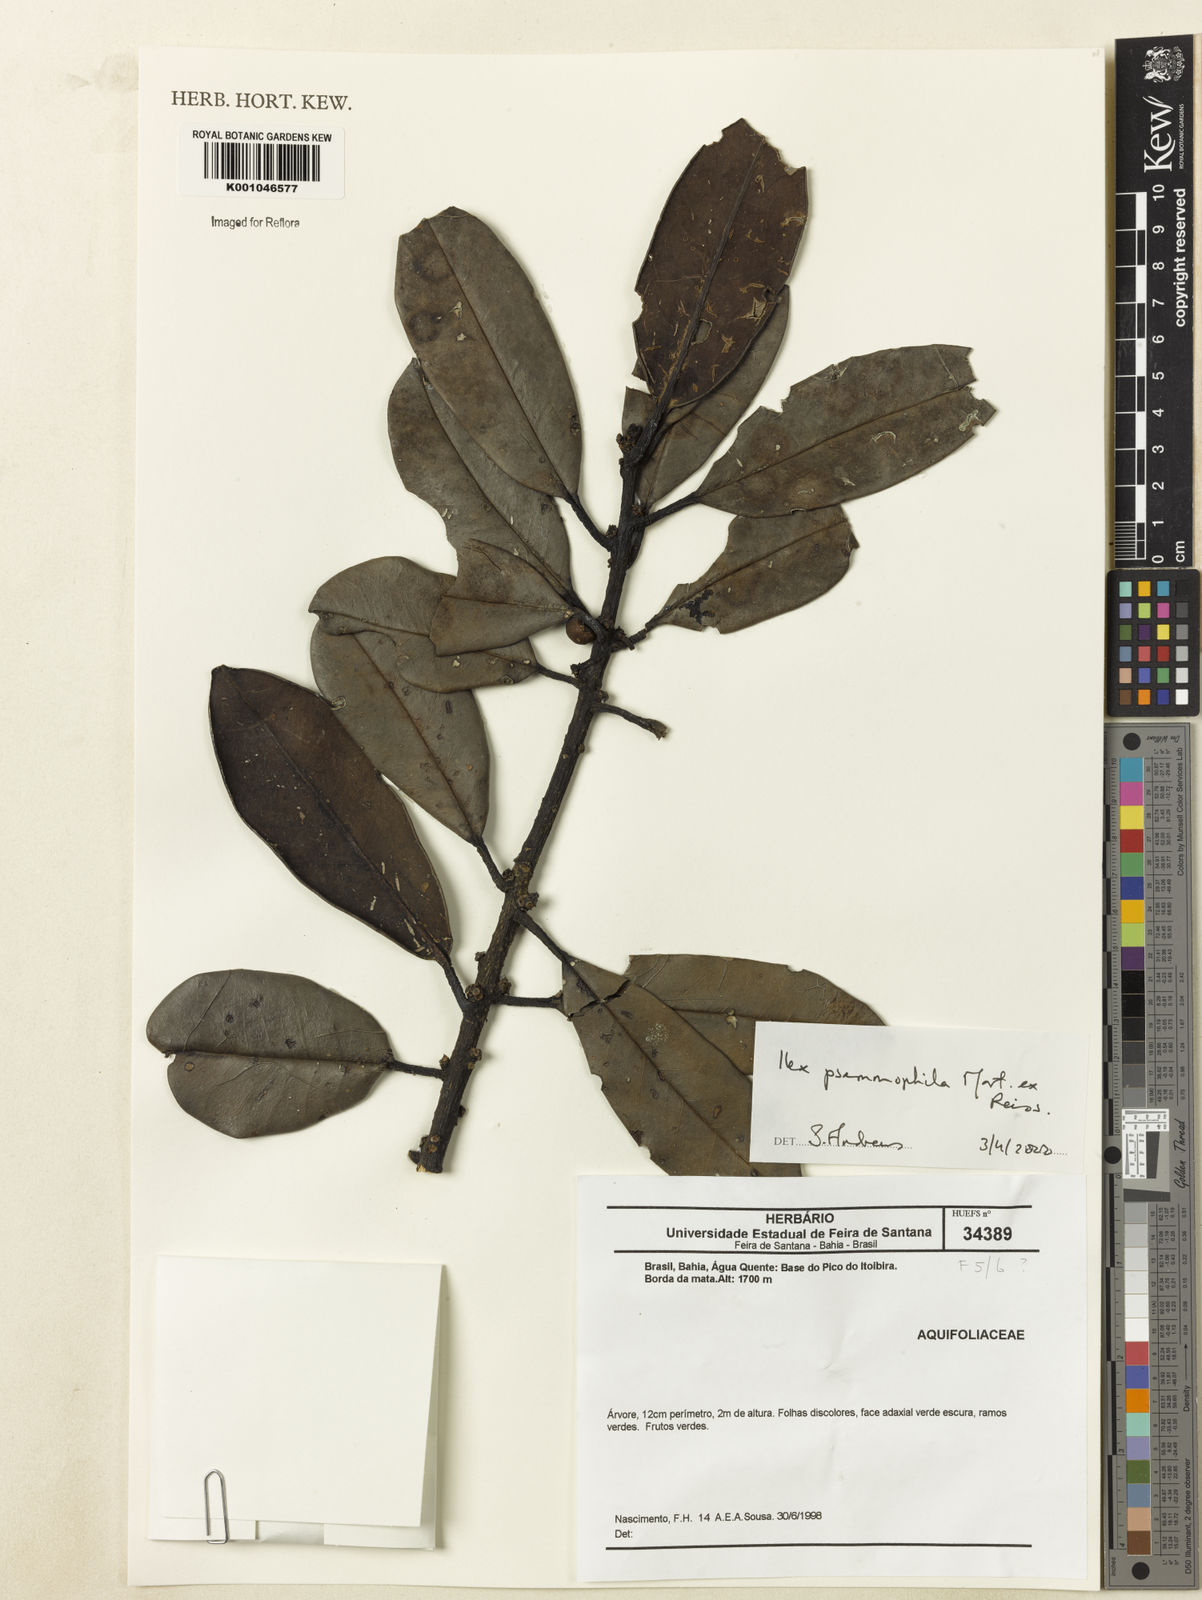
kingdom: Plantae
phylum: Tracheophyta
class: Magnoliopsida
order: Aquifoliales
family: Aquifoliaceae
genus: Ilex
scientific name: Ilex psammophila
